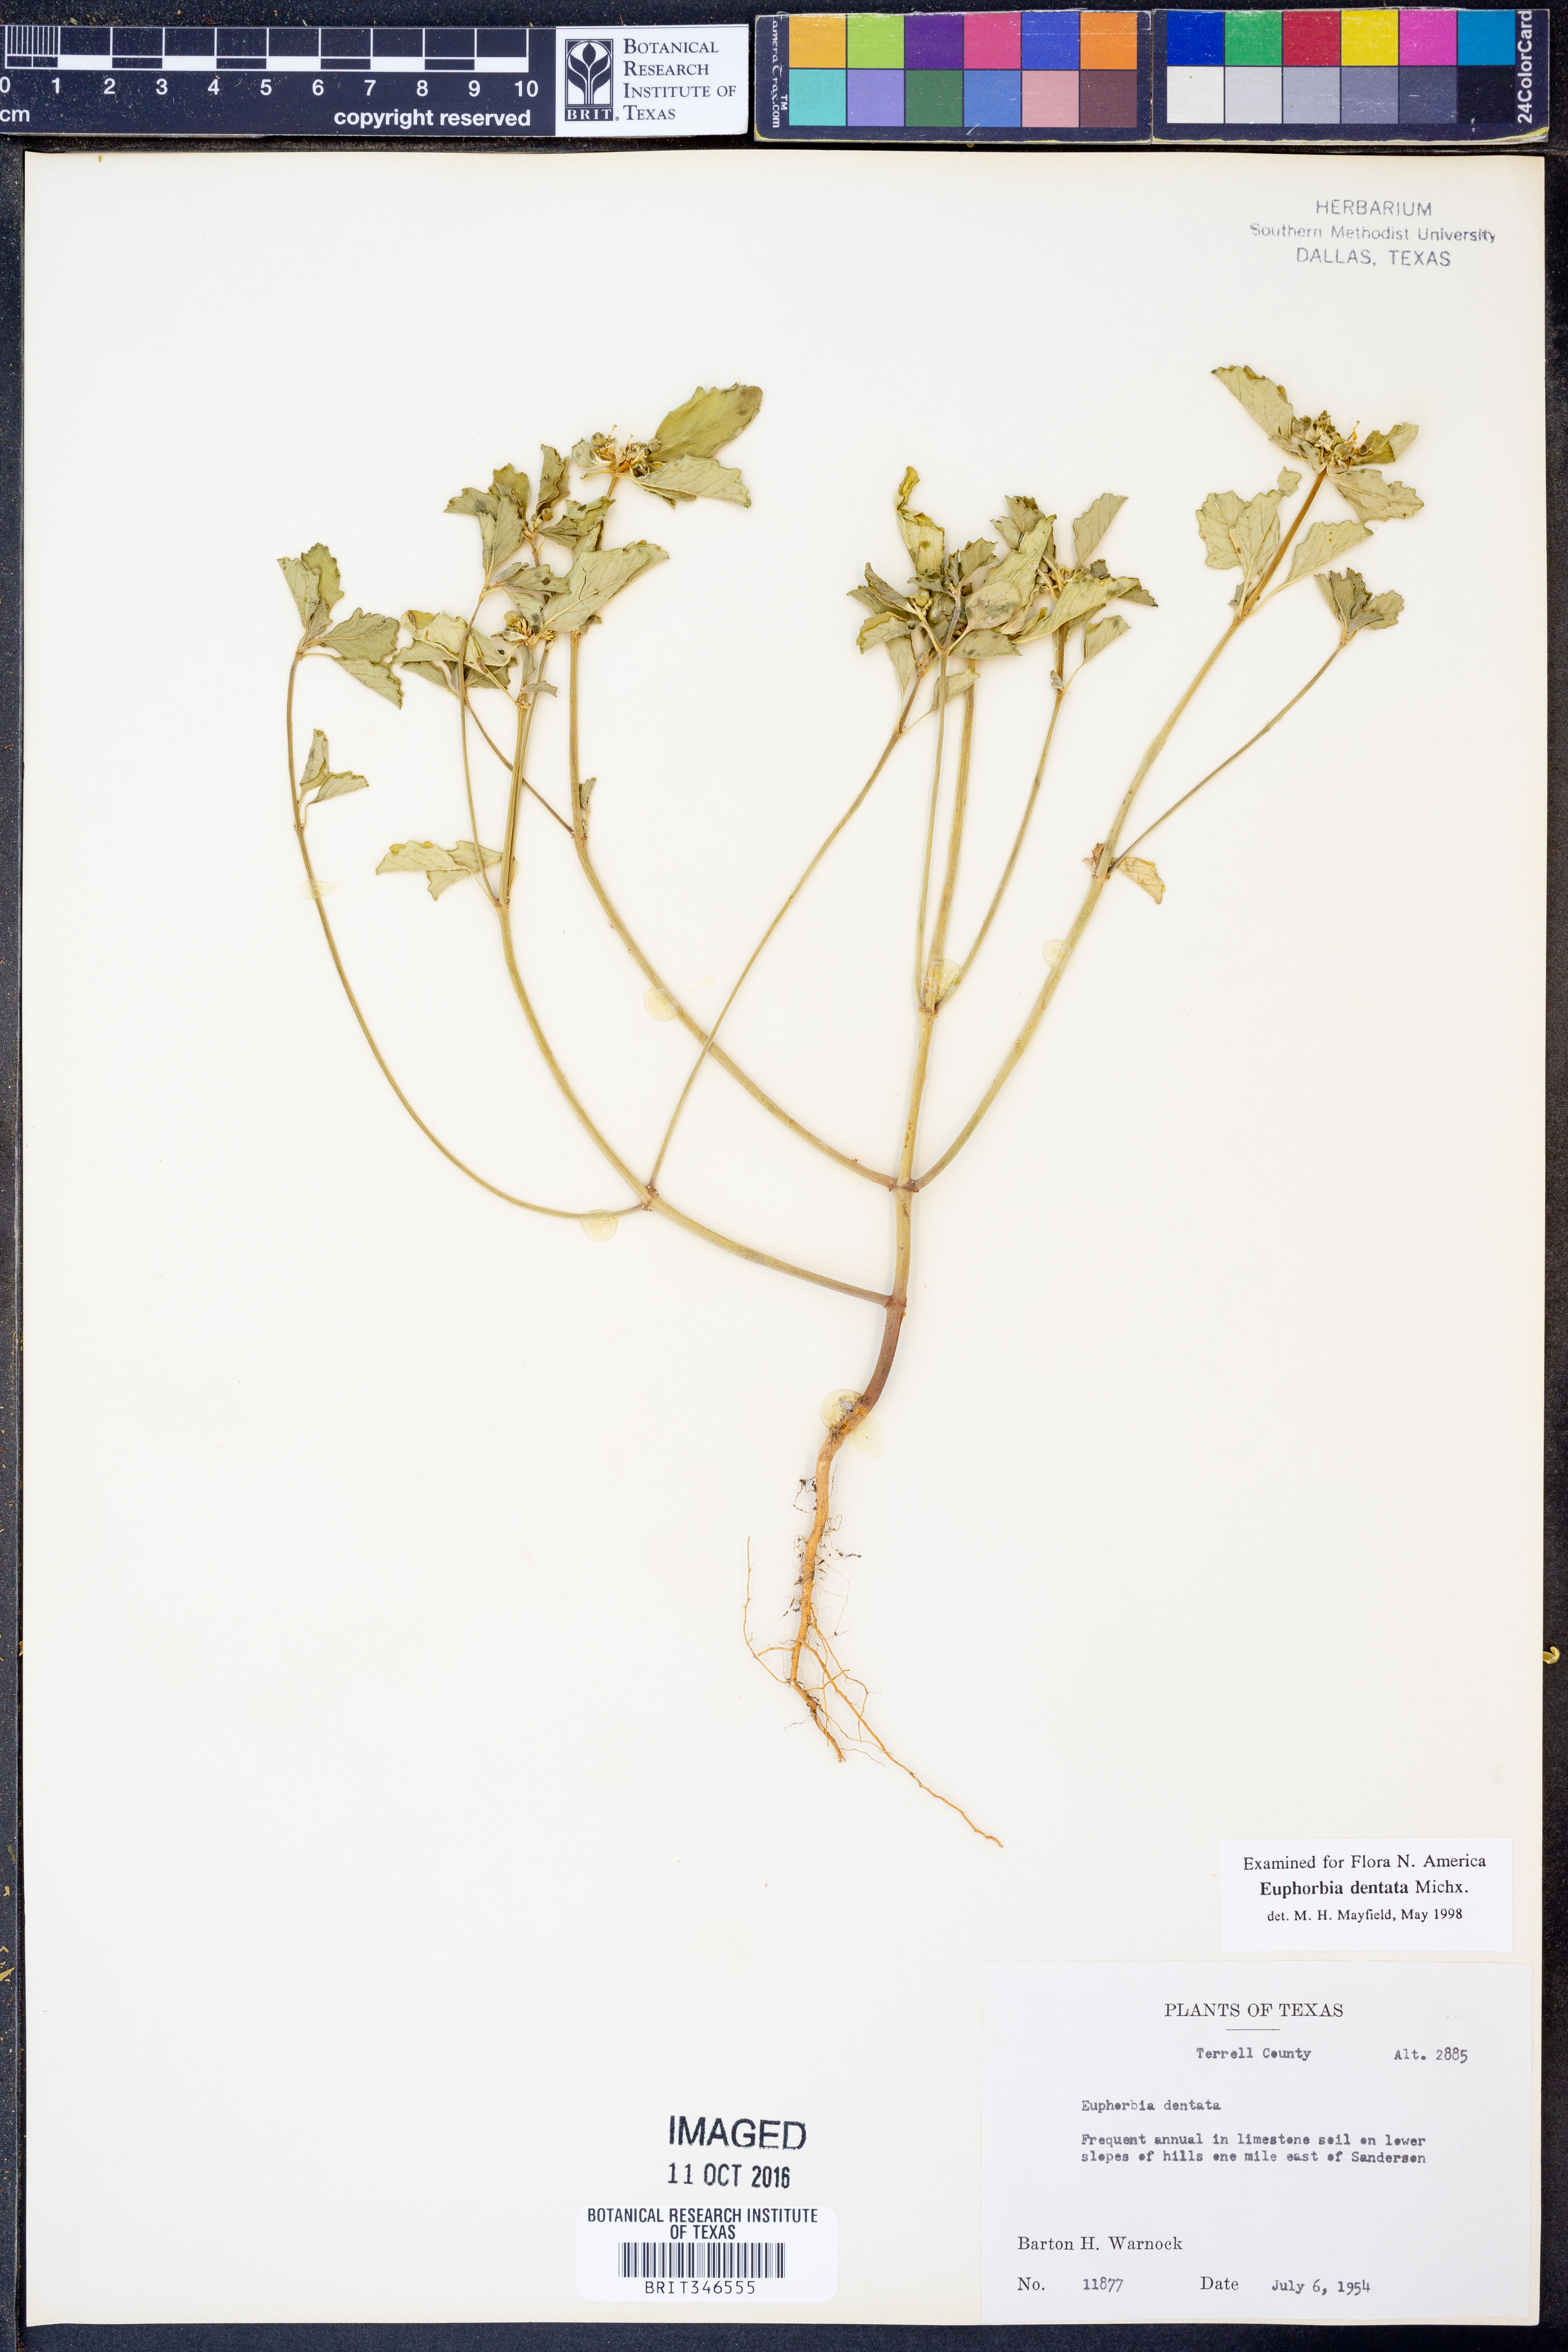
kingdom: Plantae
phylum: Tracheophyta
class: Magnoliopsida
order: Malpighiales
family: Euphorbiaceae
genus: Euphorbia
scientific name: Euphorbia dentata
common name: Dentate spurge
